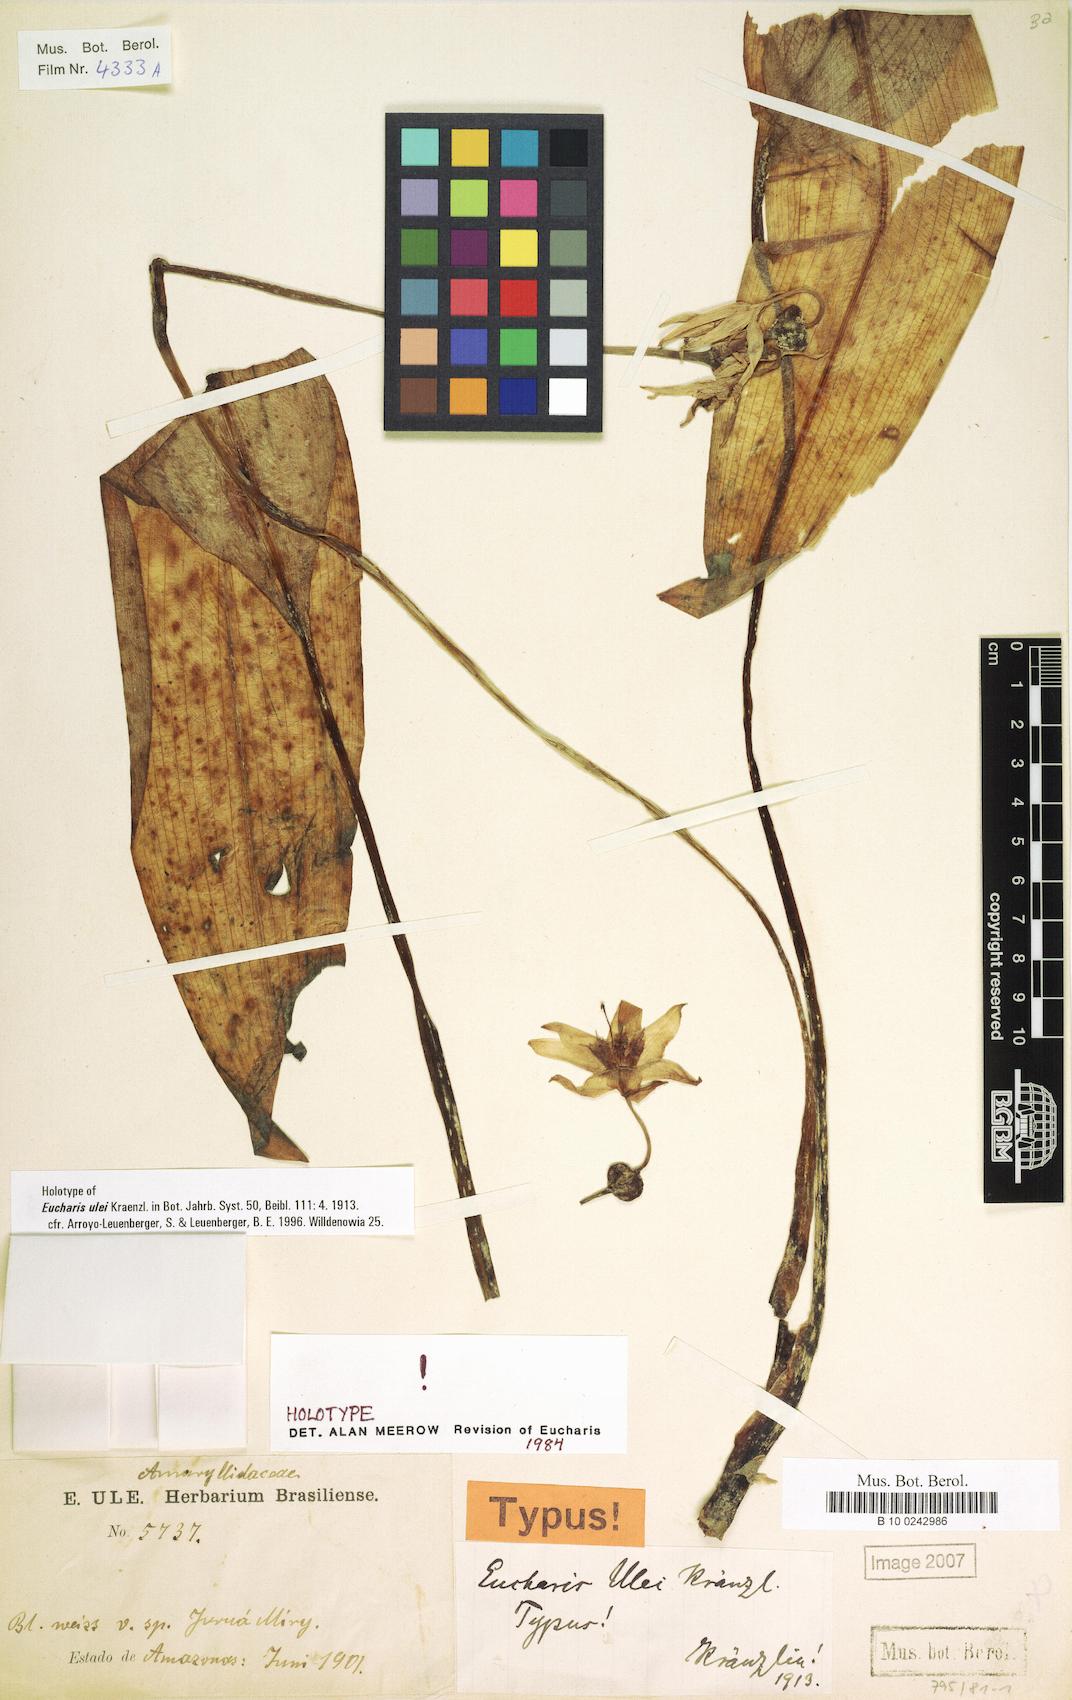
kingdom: Plantae
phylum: Tracheophyta
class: Liliopsida
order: Asparagales
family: Amaryllidaceae
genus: Urceolina
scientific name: Urceolina ulei
